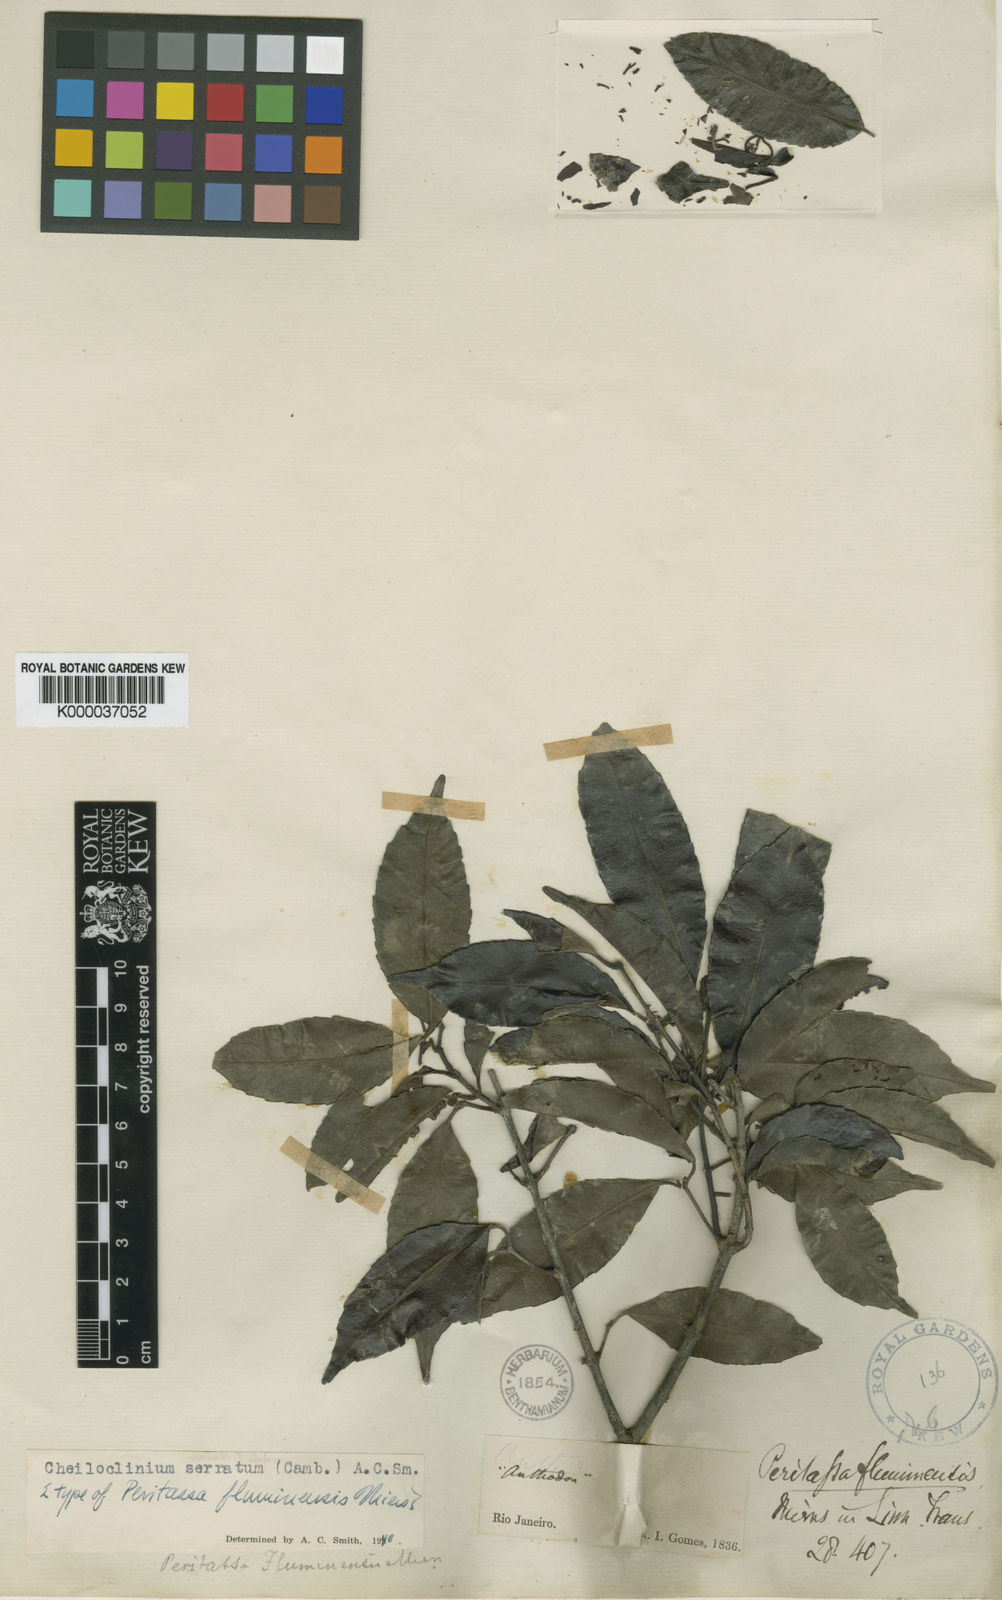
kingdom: Plantae
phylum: Tracheophyta
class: Magnoliopsida
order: Celastrales
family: Celastraceae
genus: Cheiloclinium
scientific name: Cheiloclinium serratum
